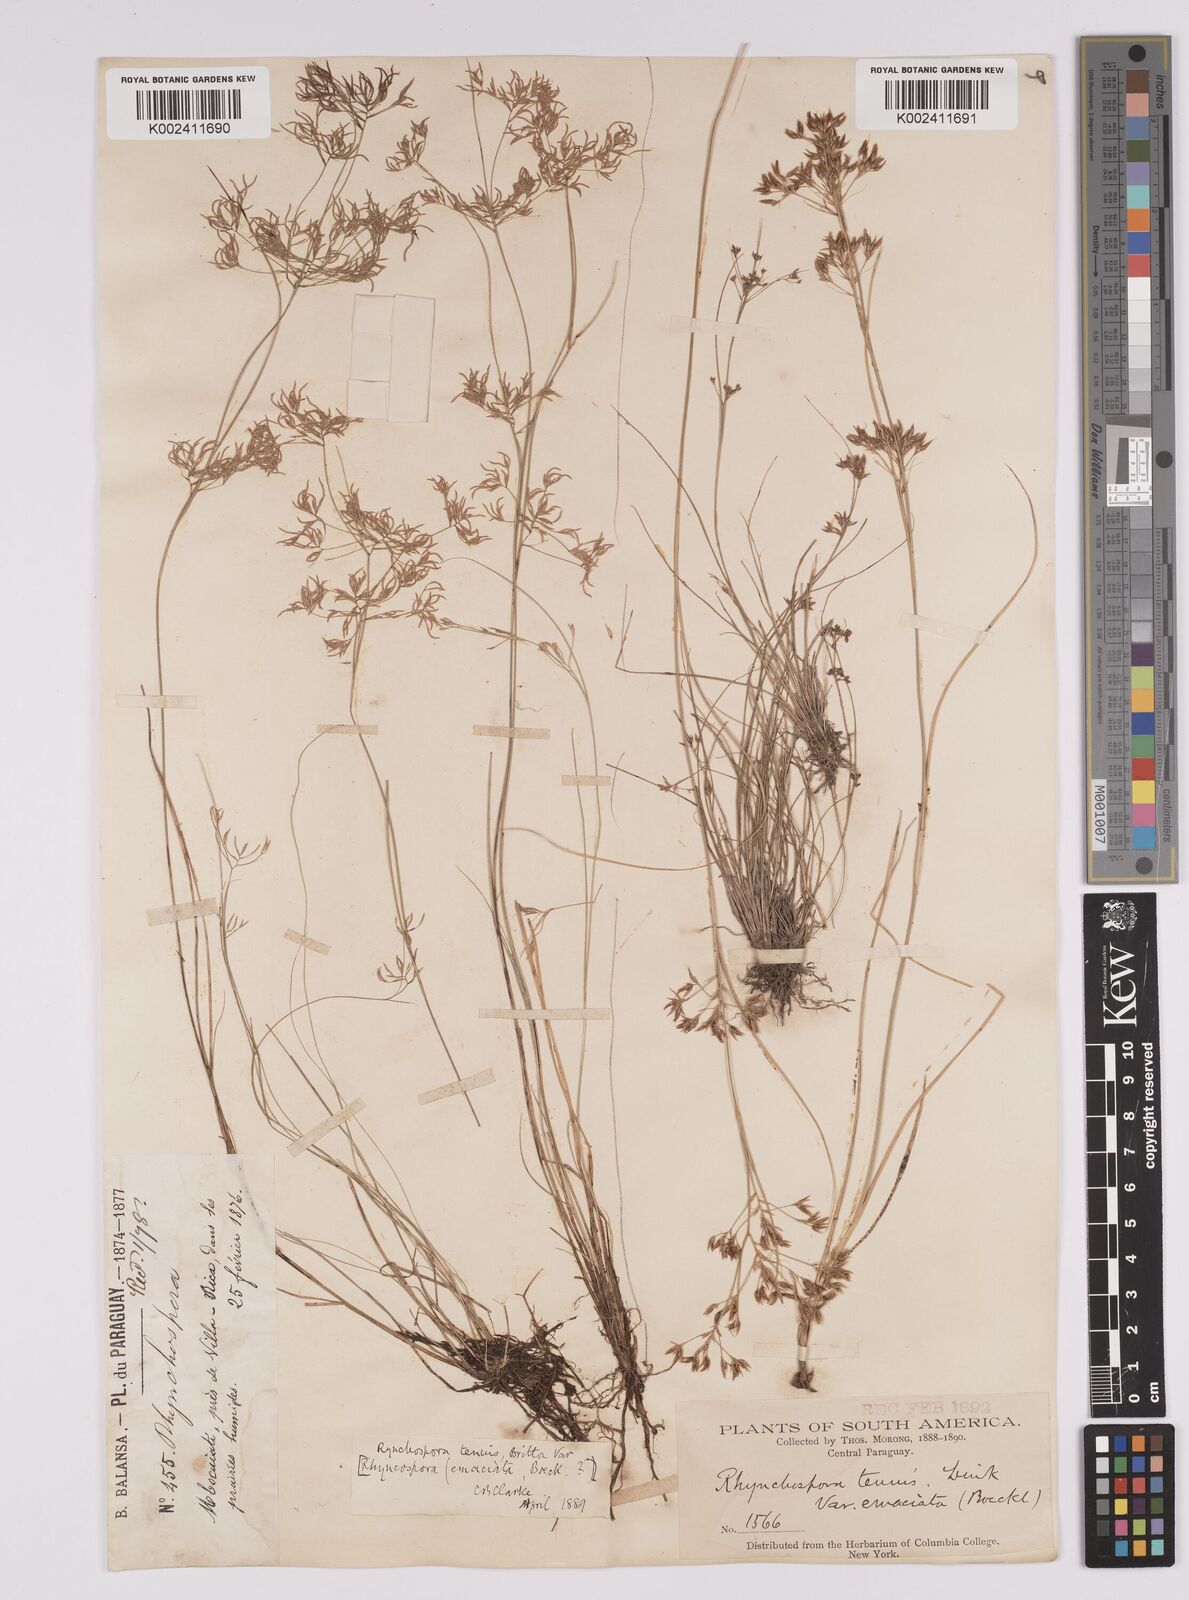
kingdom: Plantae
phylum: Tracheophyta
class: Liliopsida
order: Poales
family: Cyperaceae
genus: Rhynchospora
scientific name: Rhynchospora tenuis
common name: Quill beaksedge
